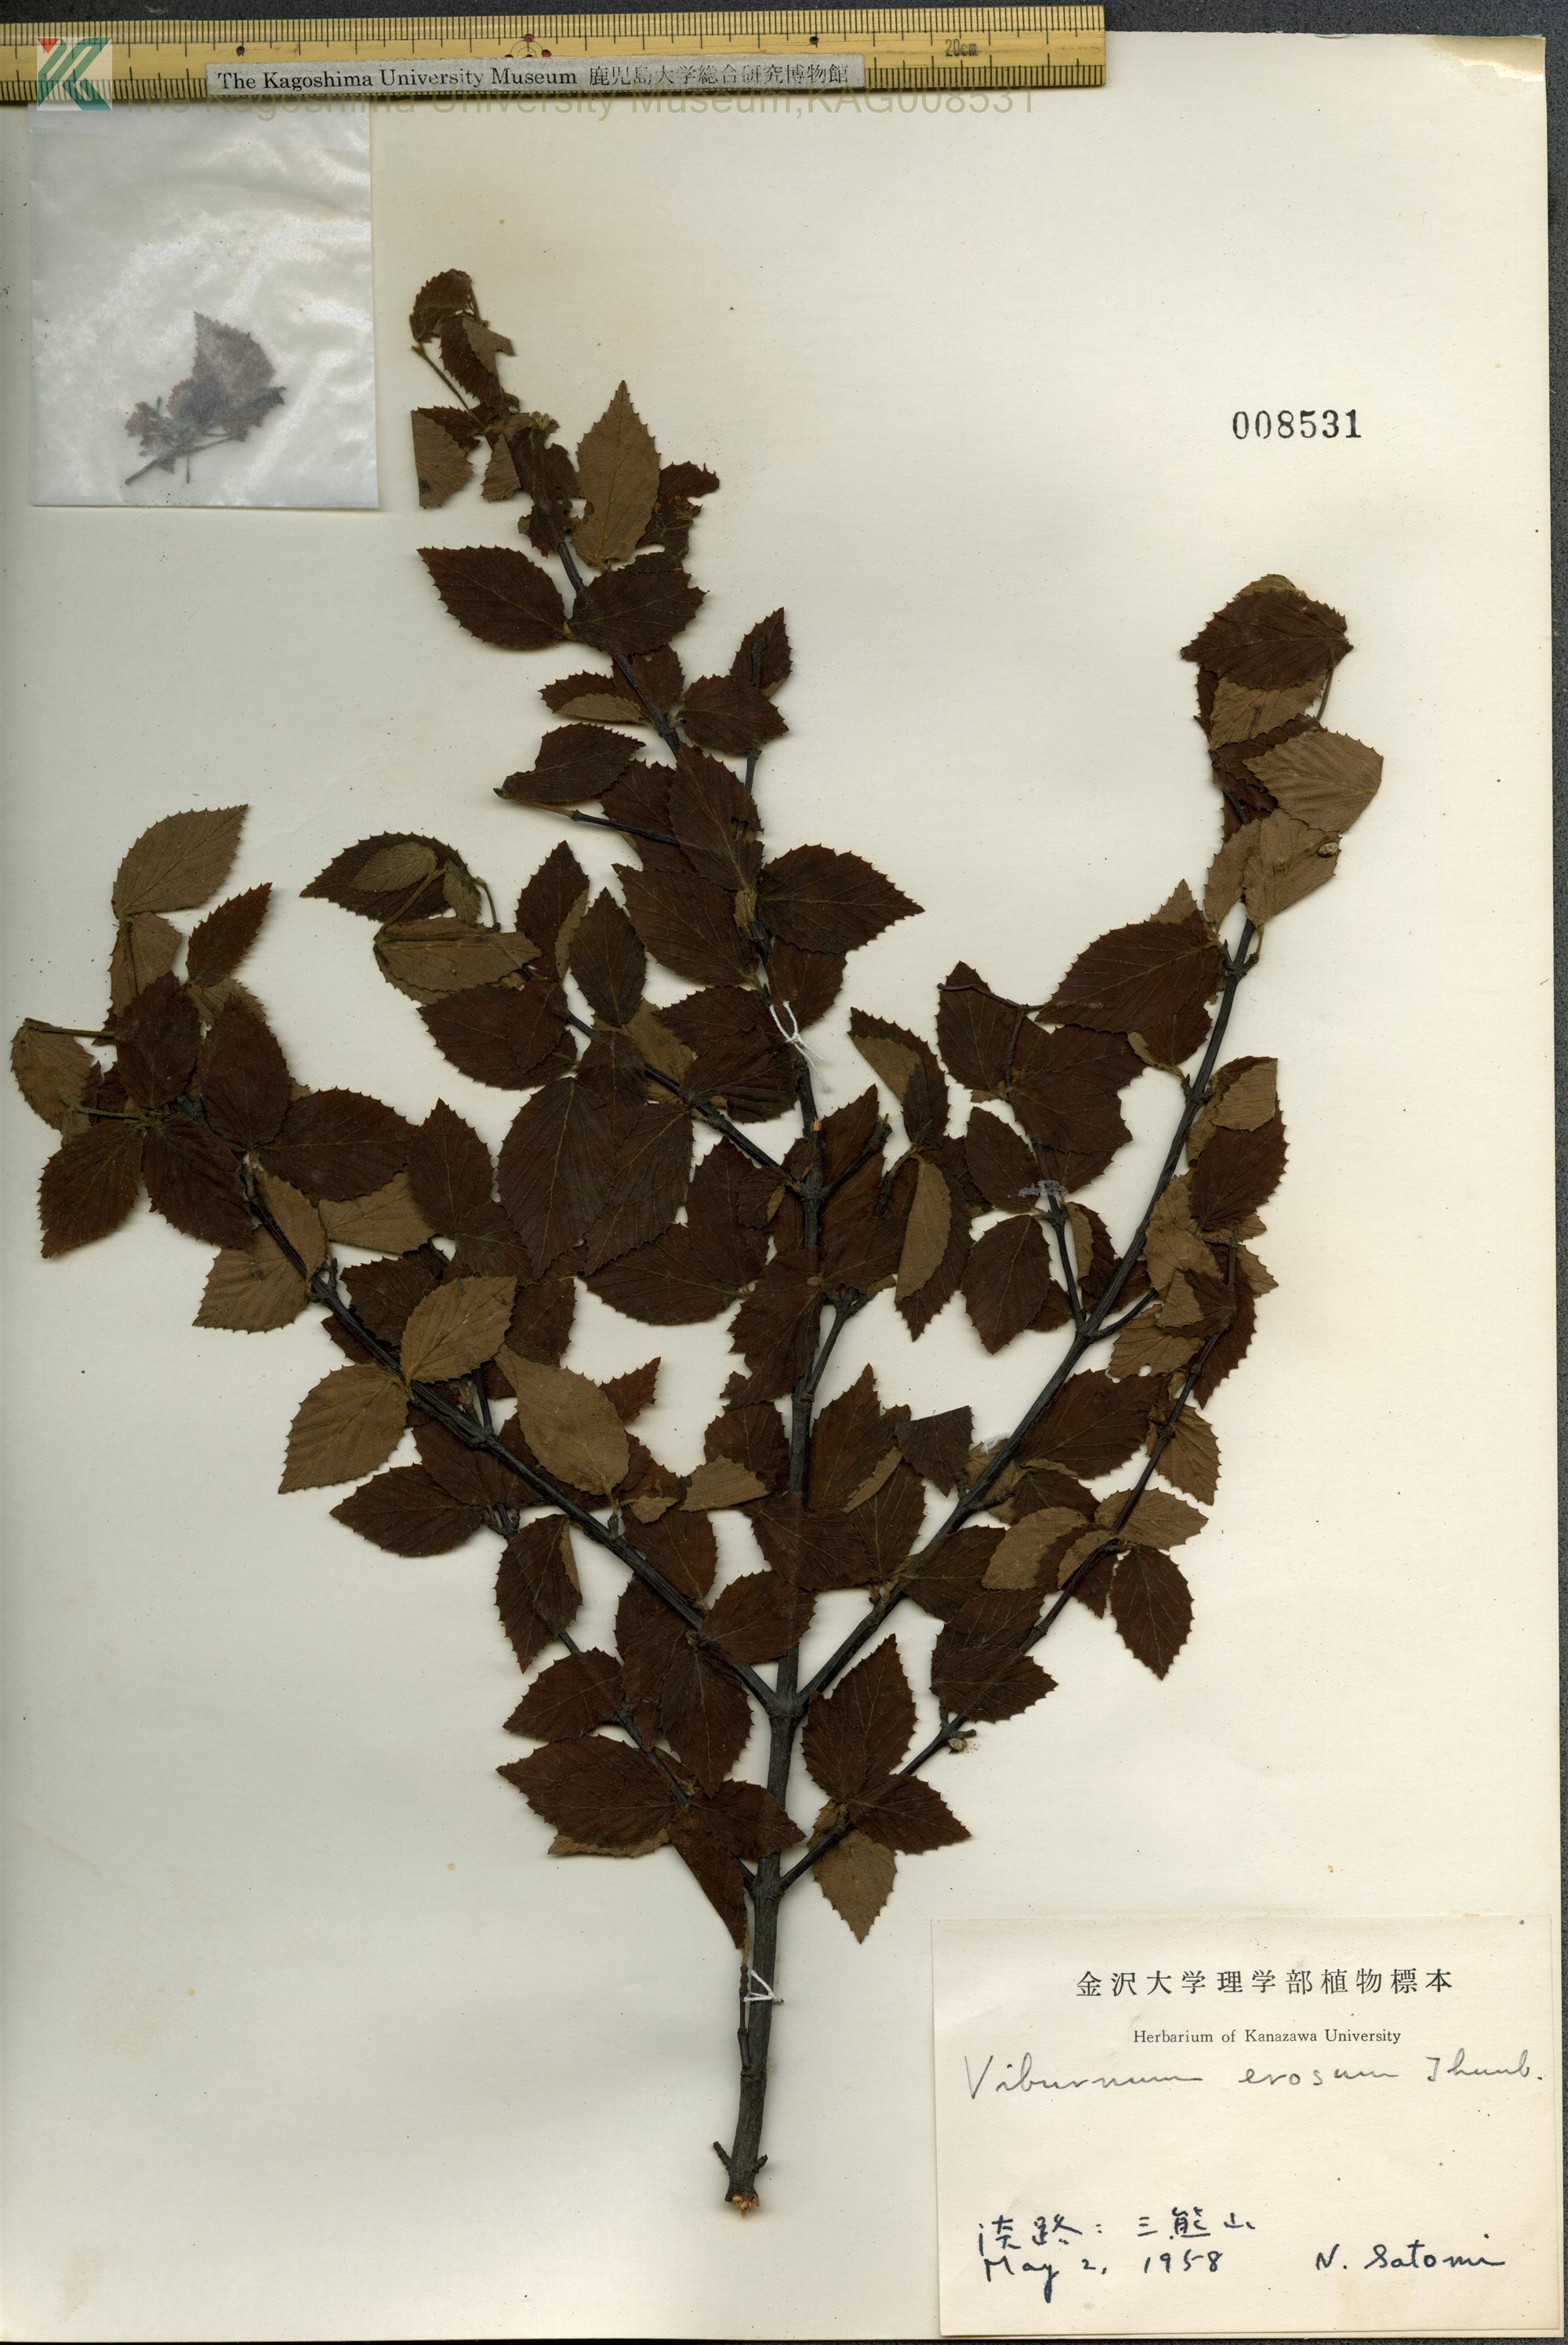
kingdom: Plantae
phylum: Tracheophyta
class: Magnoliopsida
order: Dipsacales
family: Viburnaceae
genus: Viburnum
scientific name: Viburnum erosum
